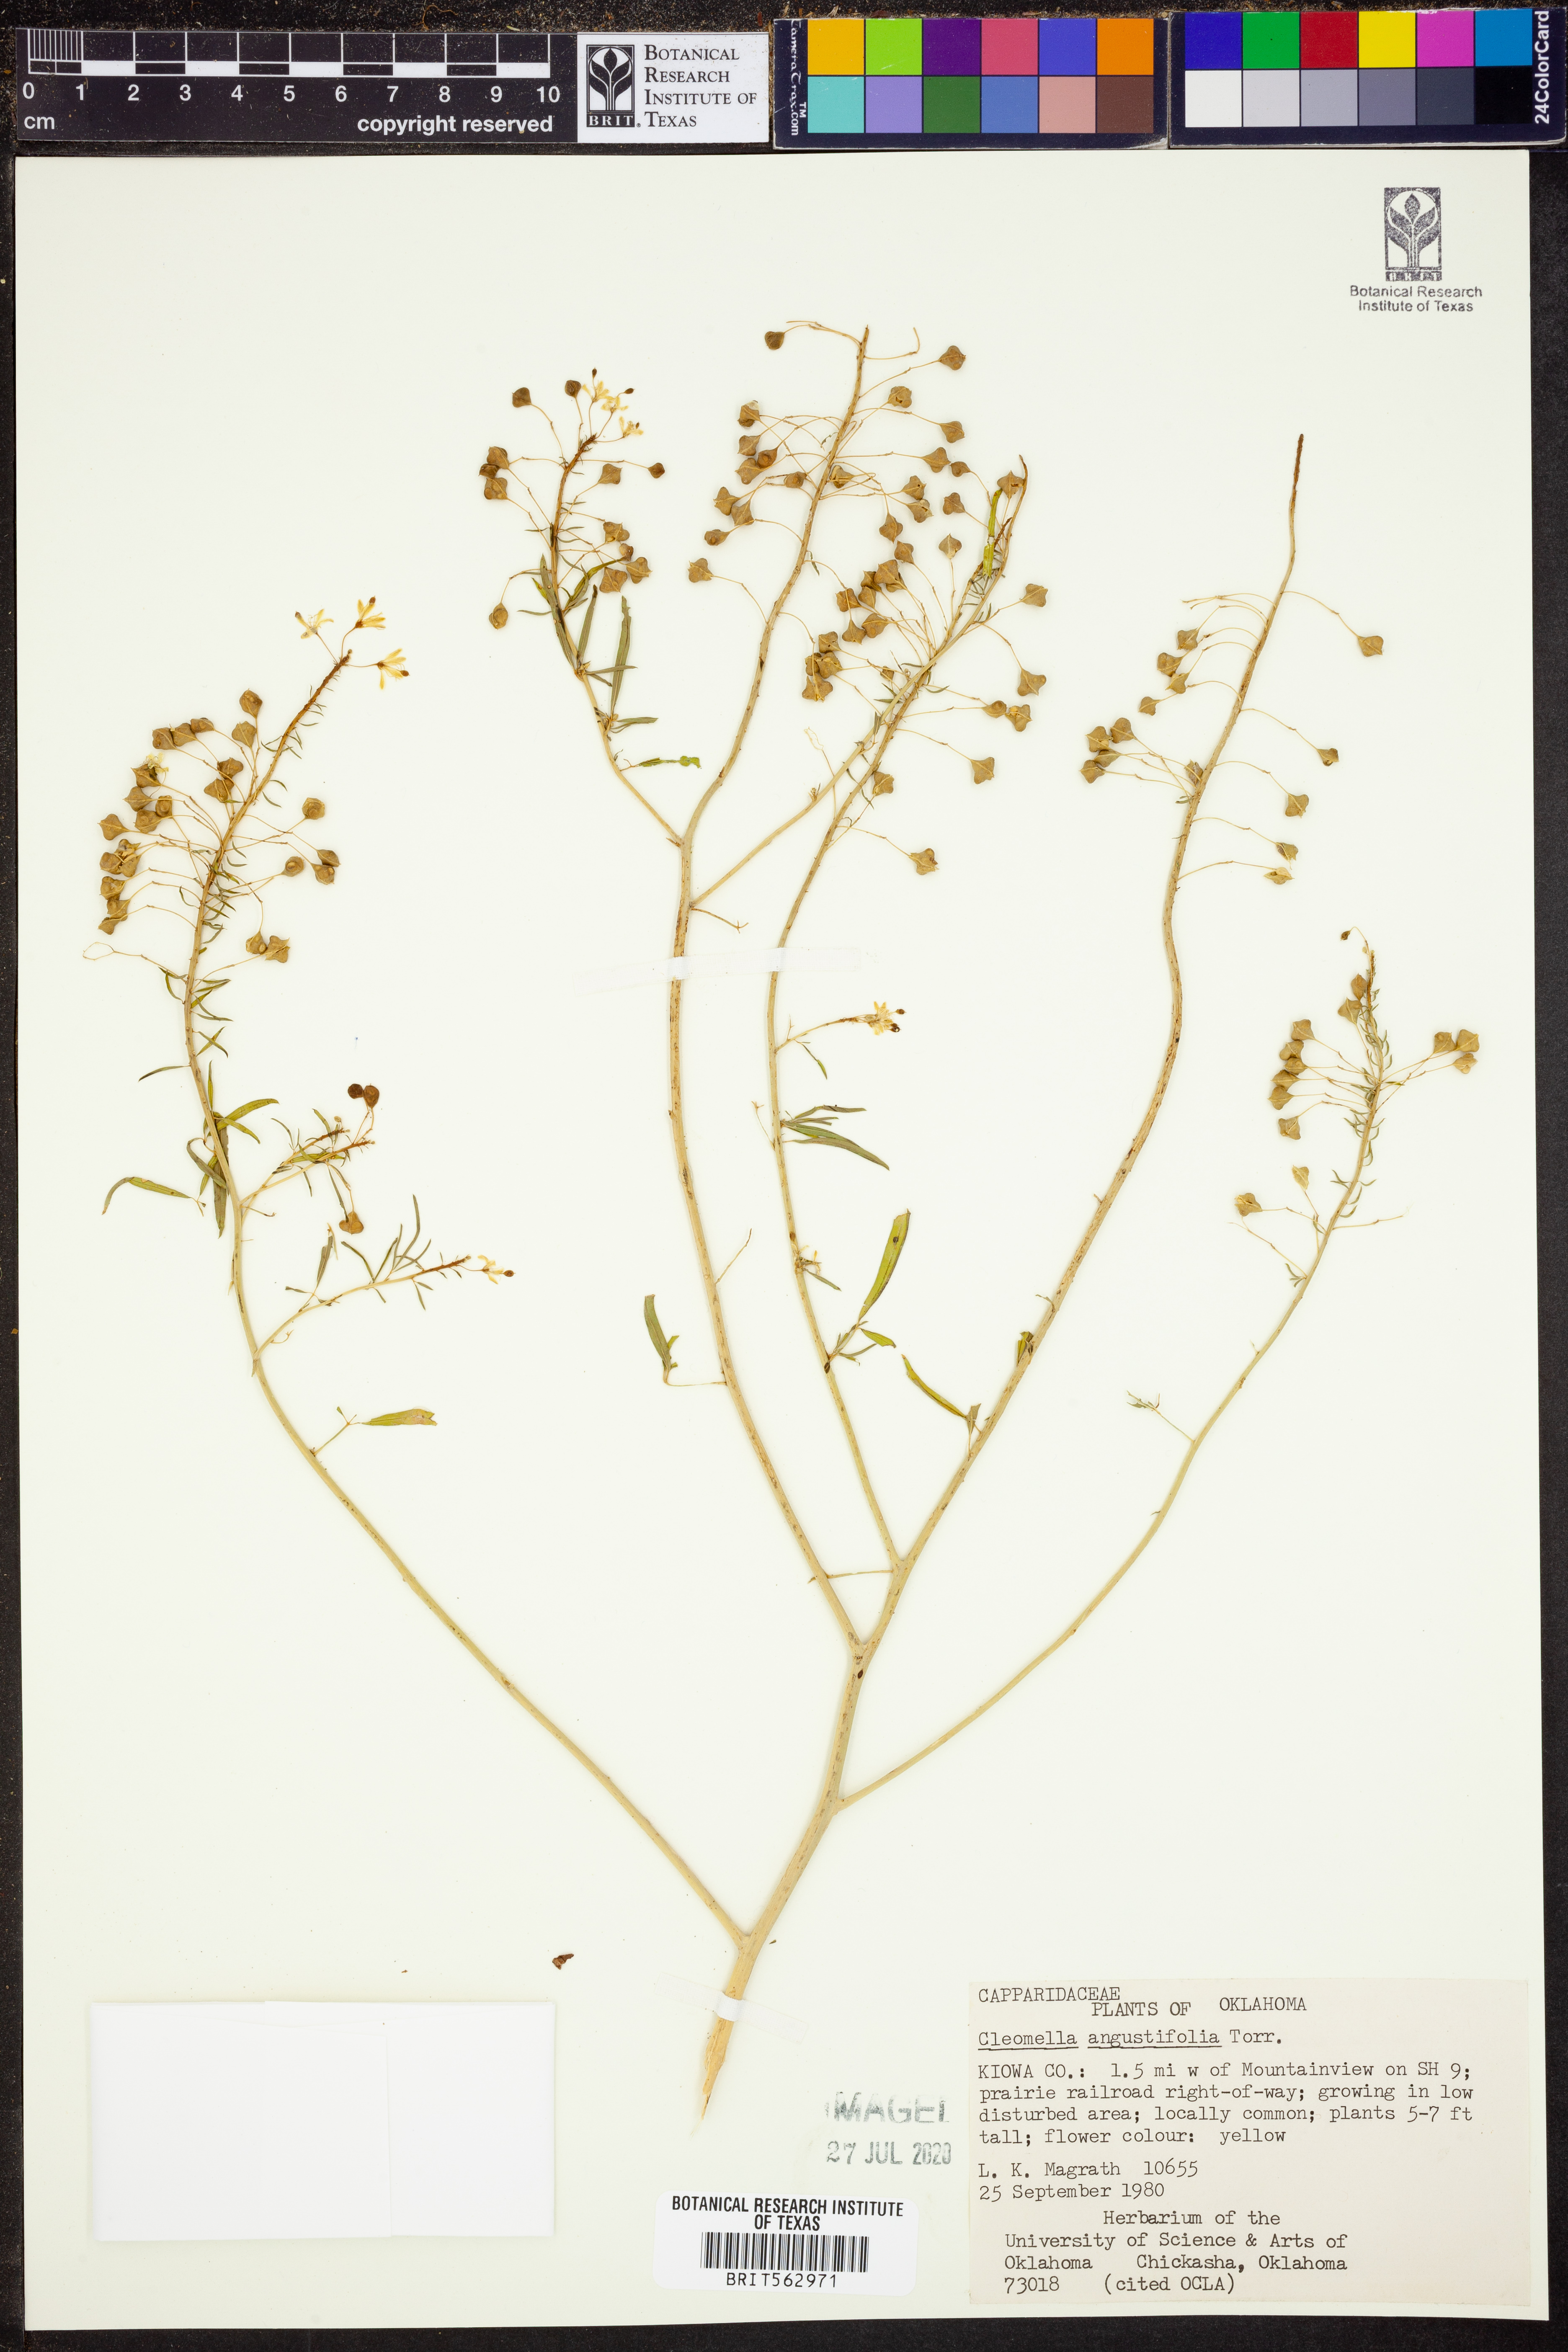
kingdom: Plantae
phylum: Tracheophyta
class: Magnoliopsida
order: Brassicales
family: Cleomaceae
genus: Cleomella
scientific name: Cleomella angustifolia
